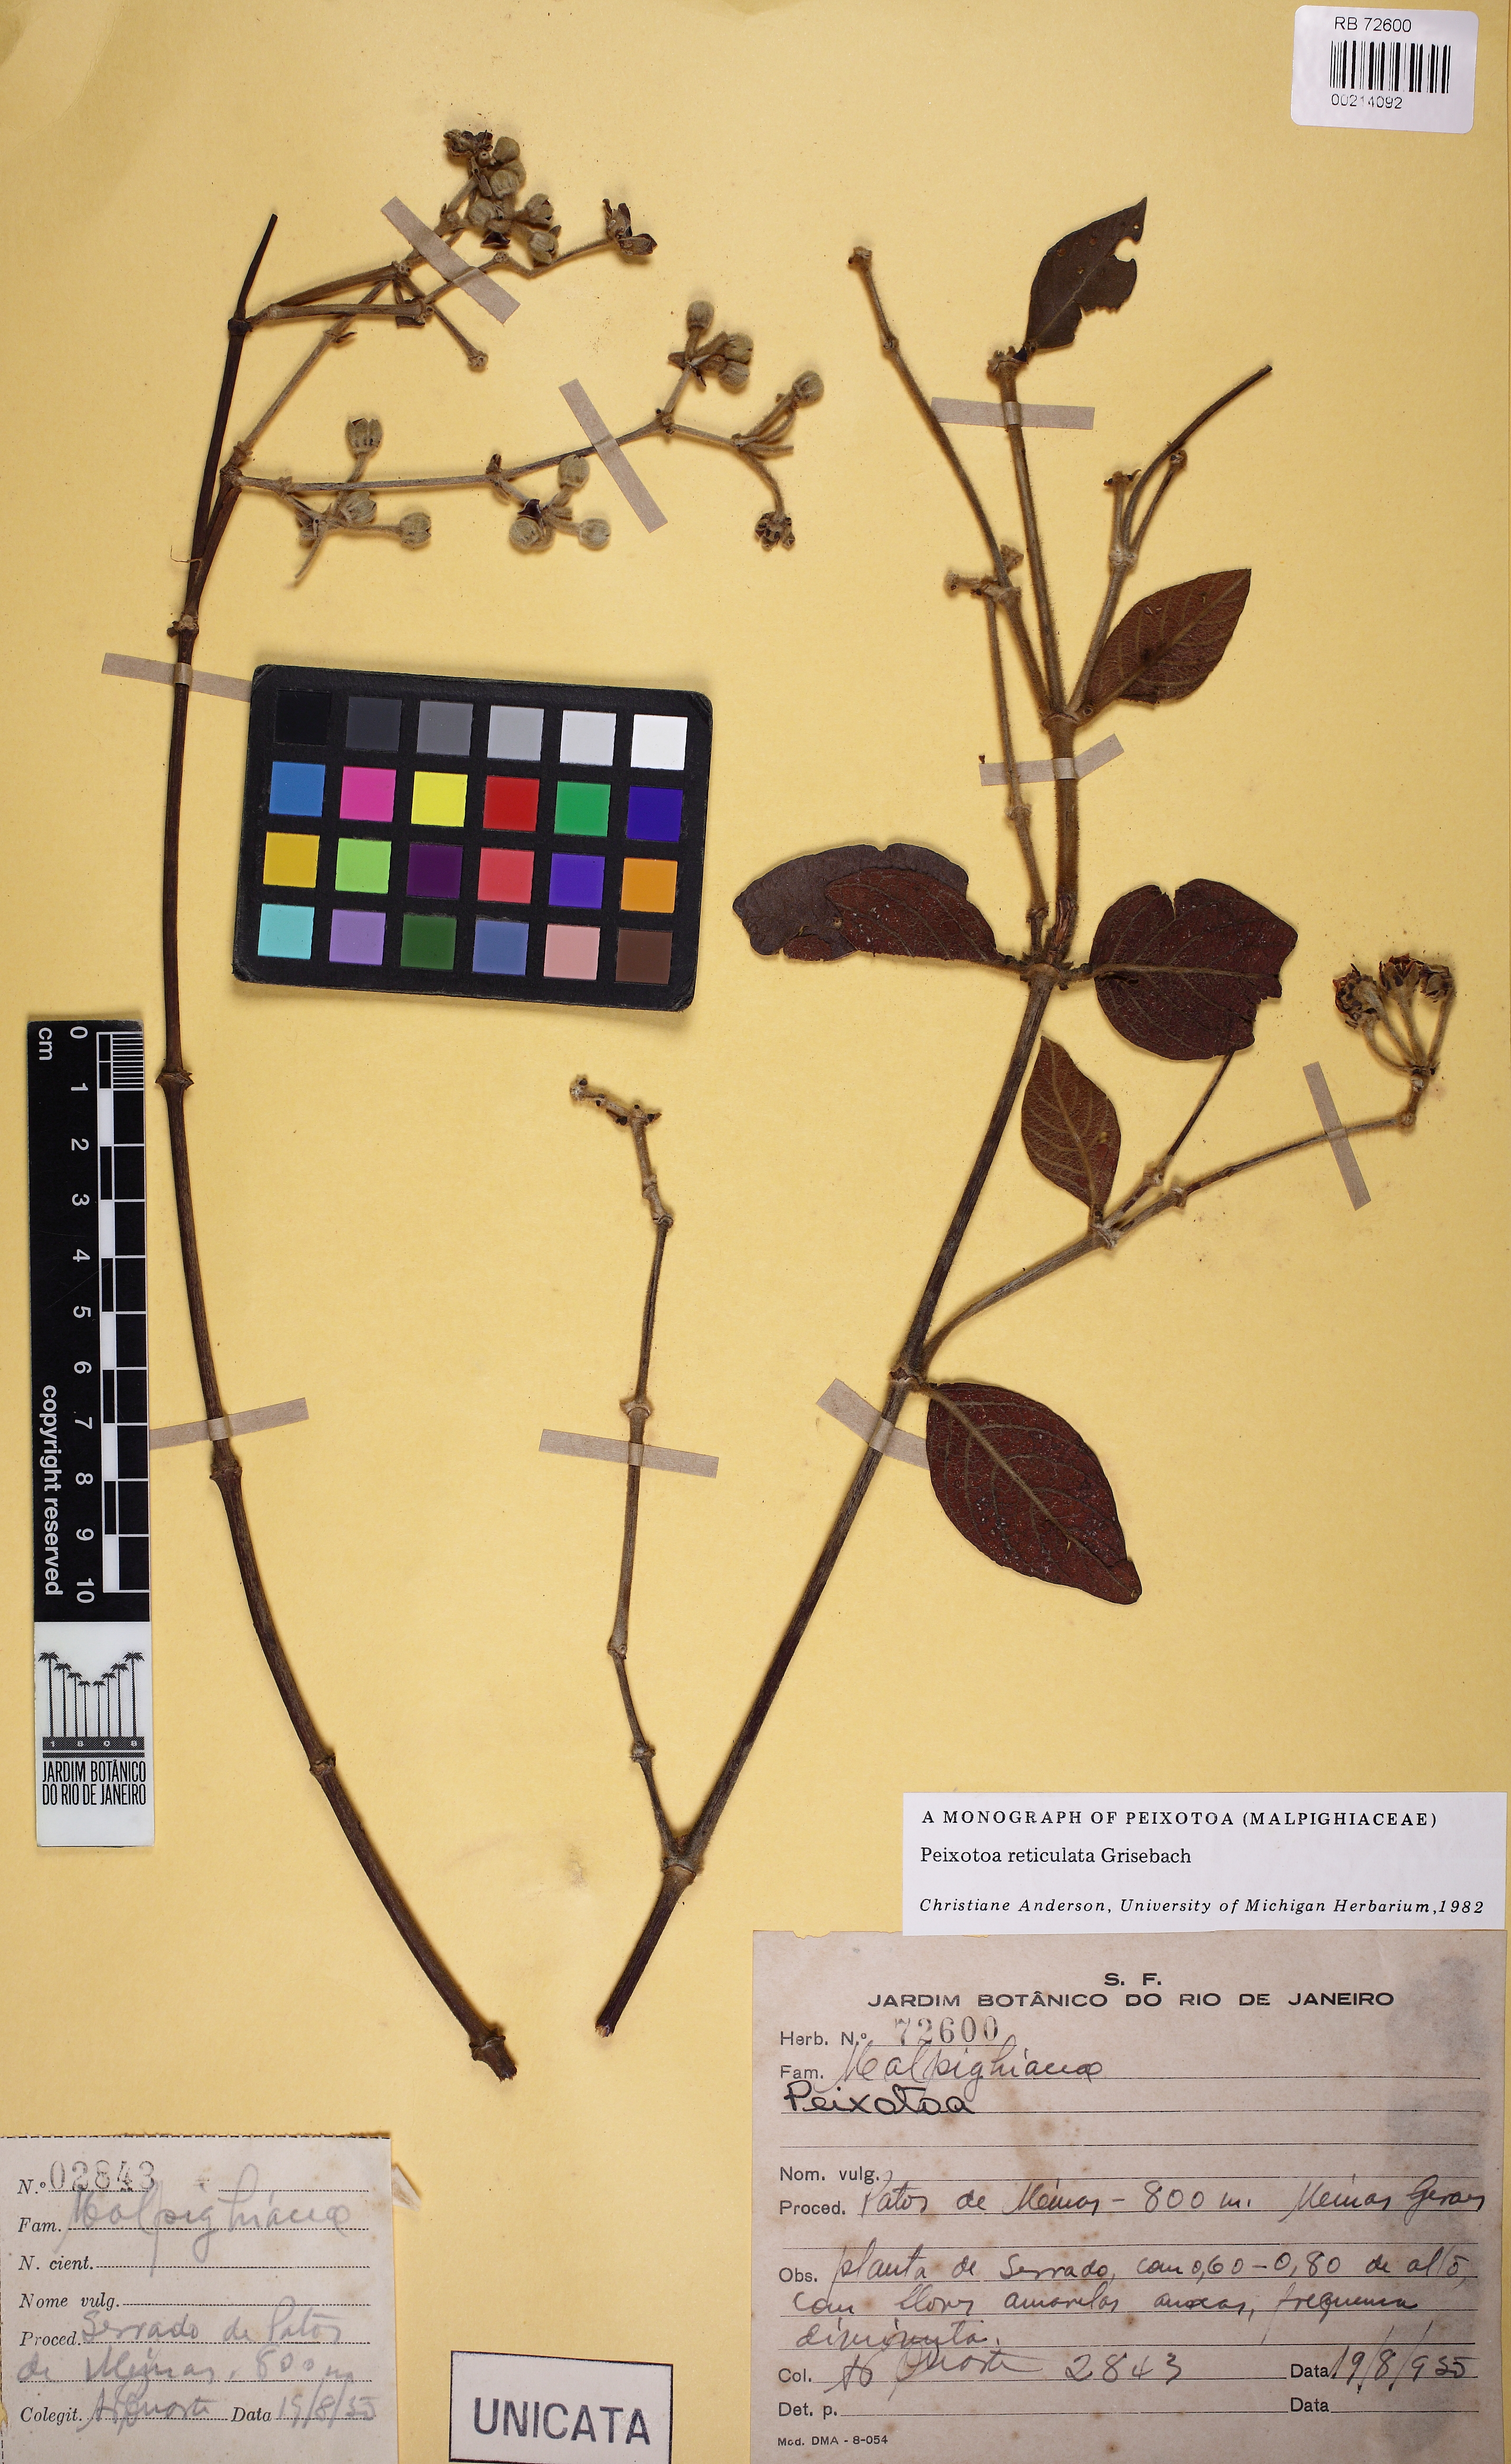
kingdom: Plantae
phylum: Tracheophyta
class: Magnoliopsida
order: Malpighiales
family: Malpighiaceae
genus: Peixotoa
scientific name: Peixotoa reticulata
